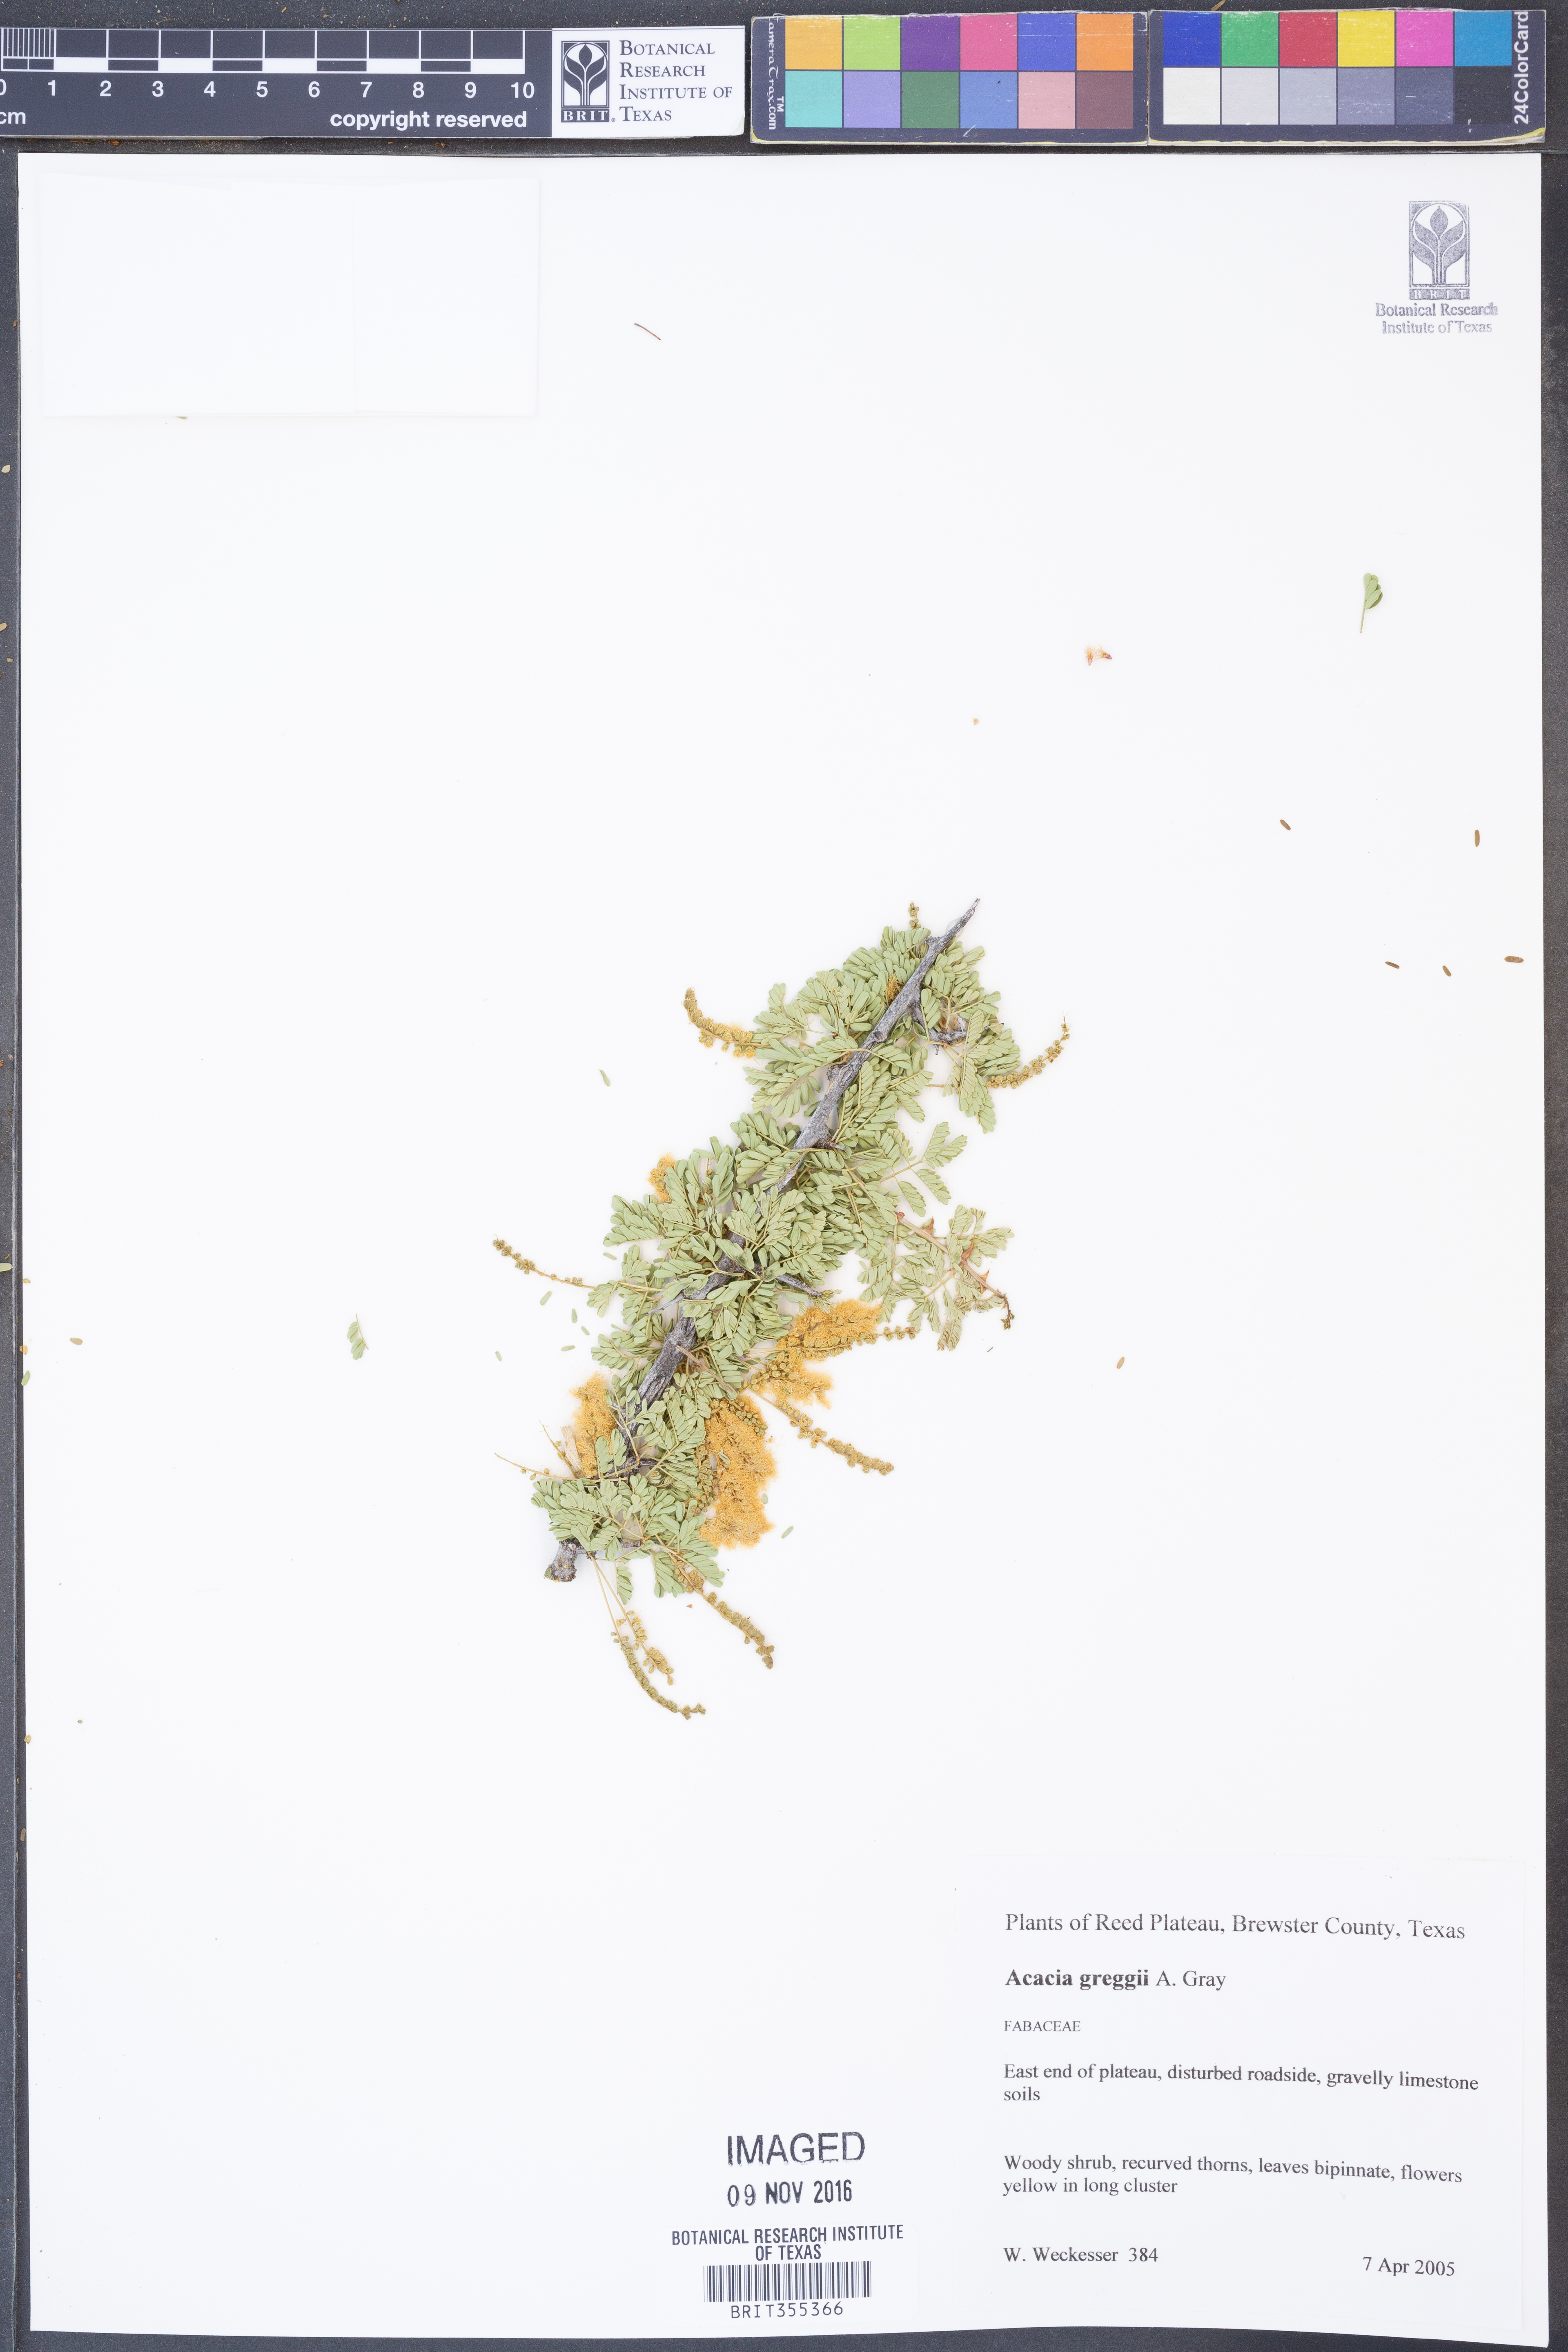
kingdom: Plantae
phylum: Tracheophyta
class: Magnoliopsida
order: Fabales
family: Fabaceae
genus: Senegalia
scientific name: Senegalia greggii
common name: Texas-mimosa
